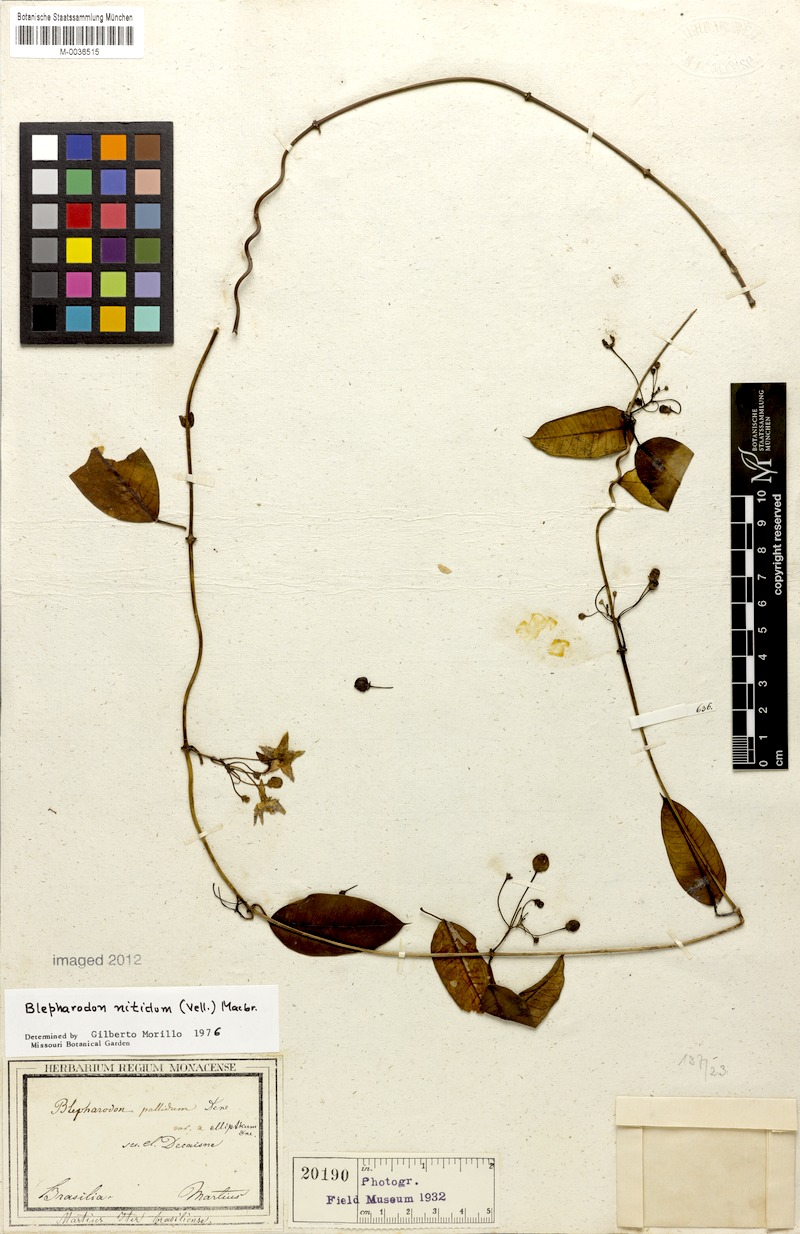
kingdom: Plantae
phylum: Tracheophyta
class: Magnoliopsida
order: Gentianales
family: Apocynaceae
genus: Blepharodon
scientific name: Blepharodon pictum
